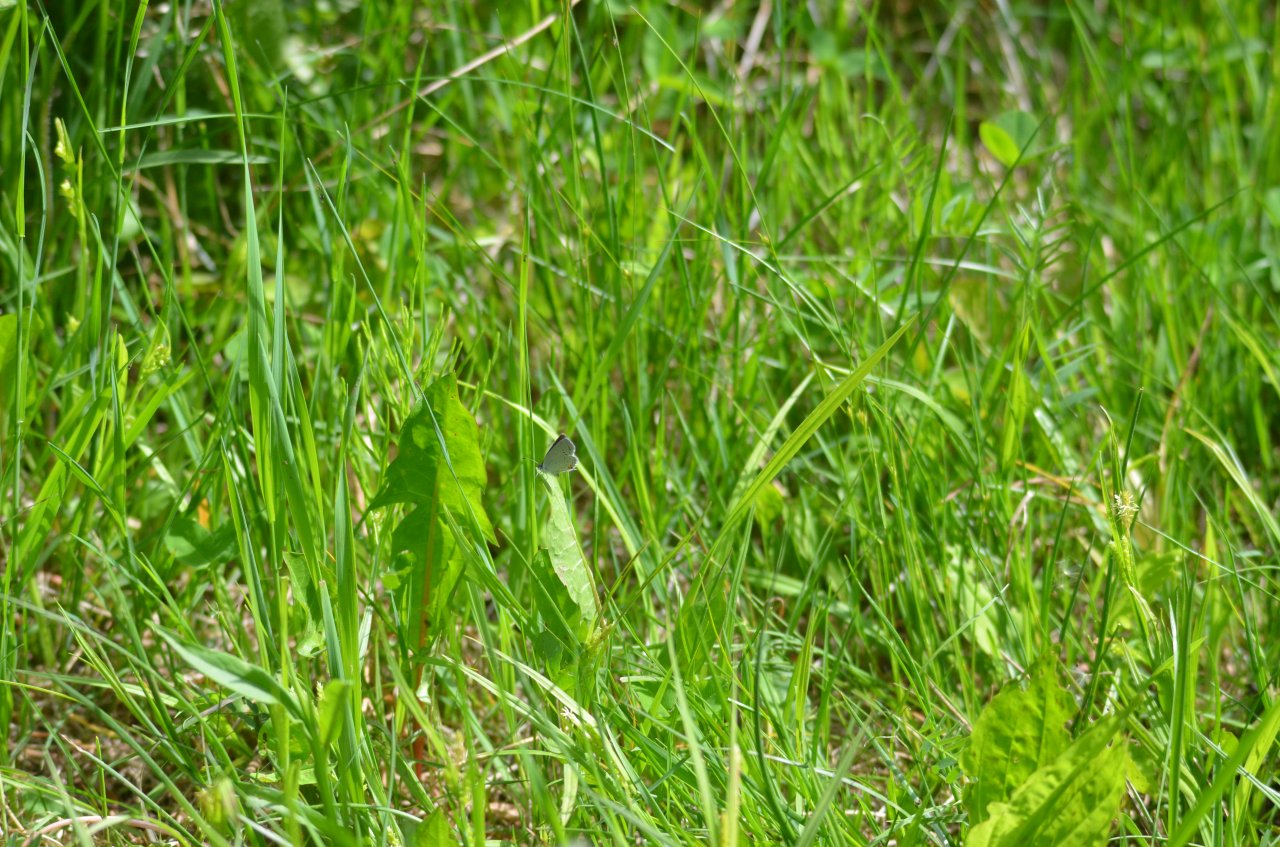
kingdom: Animalia
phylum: Arthropoda
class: Insecta
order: Lepidoptera
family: Lycaenidae
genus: Elkalyce
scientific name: Elkalyce comyntas
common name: Eastern Tailed-Blue
